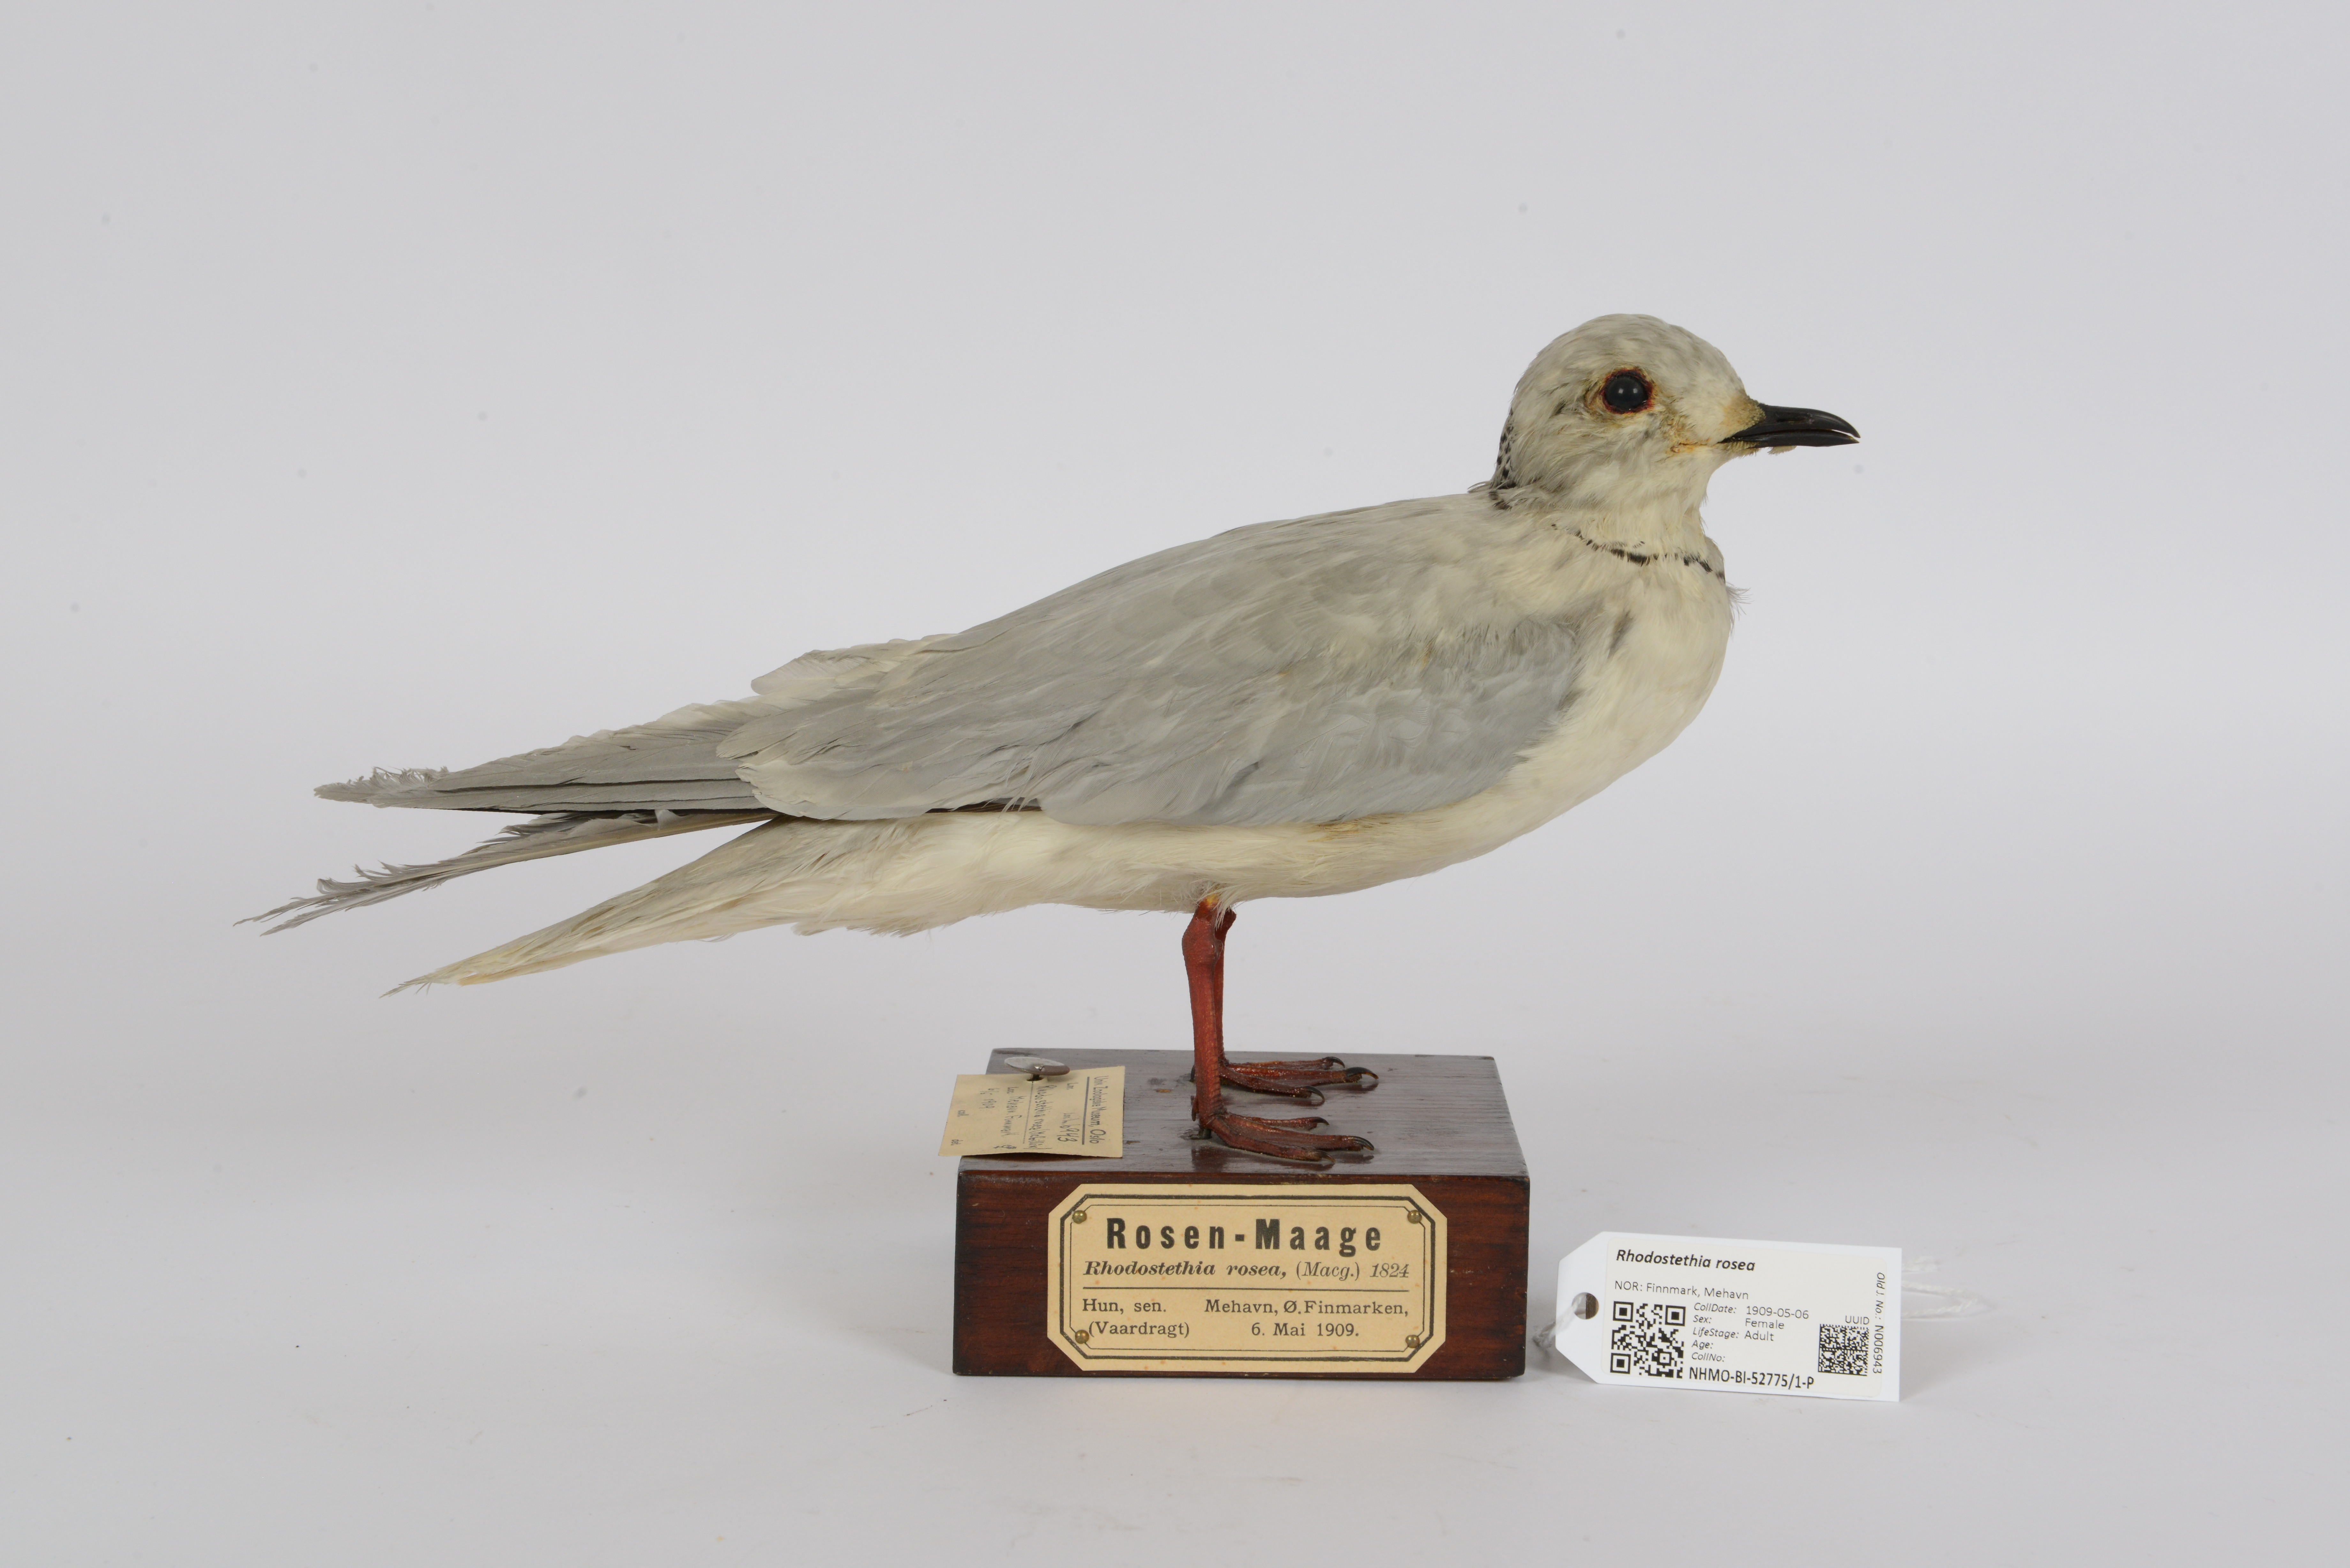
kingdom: Animalia
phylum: Chordata
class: Aves
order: Charadriiformes
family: Laridae
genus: Rhodostethia
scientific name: Rhodostethia rosea
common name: Ross's gull
